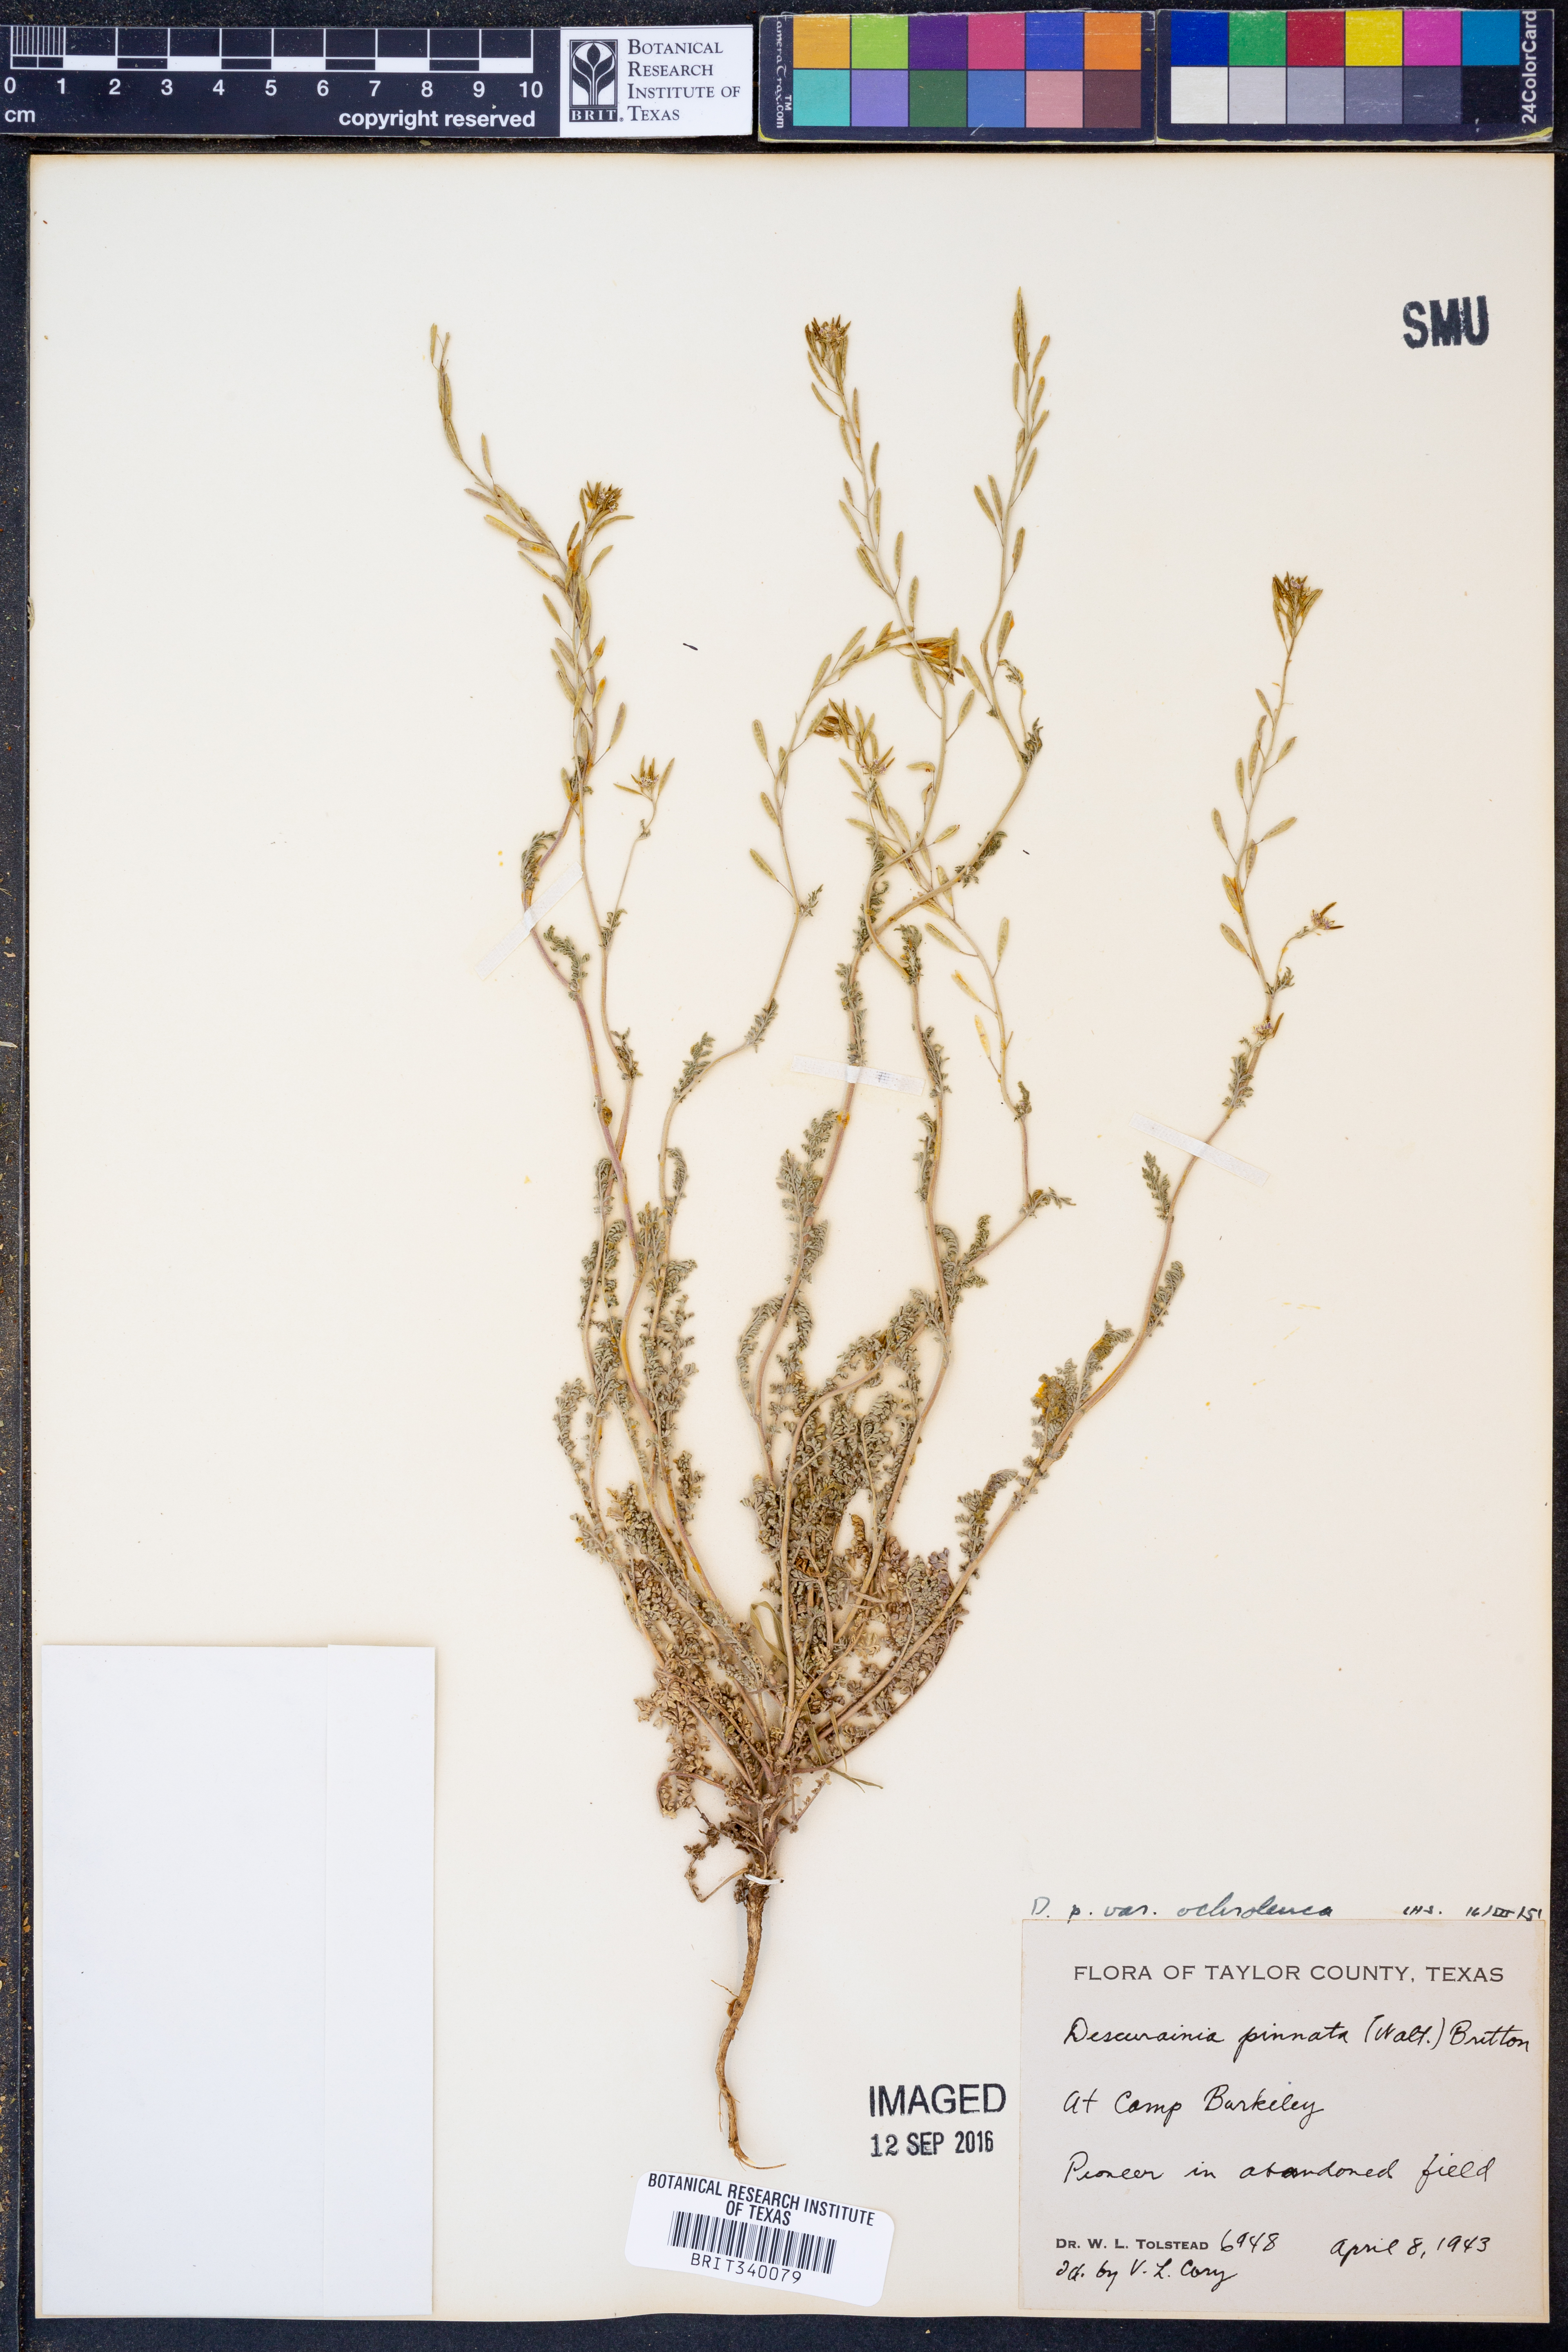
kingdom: Plantae
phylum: Tracheophyta
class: Magnoliopsida
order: Brassicales
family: Brassicaceae
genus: Descurainia
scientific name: Descurainia pinnata
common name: Western tansy mustard
